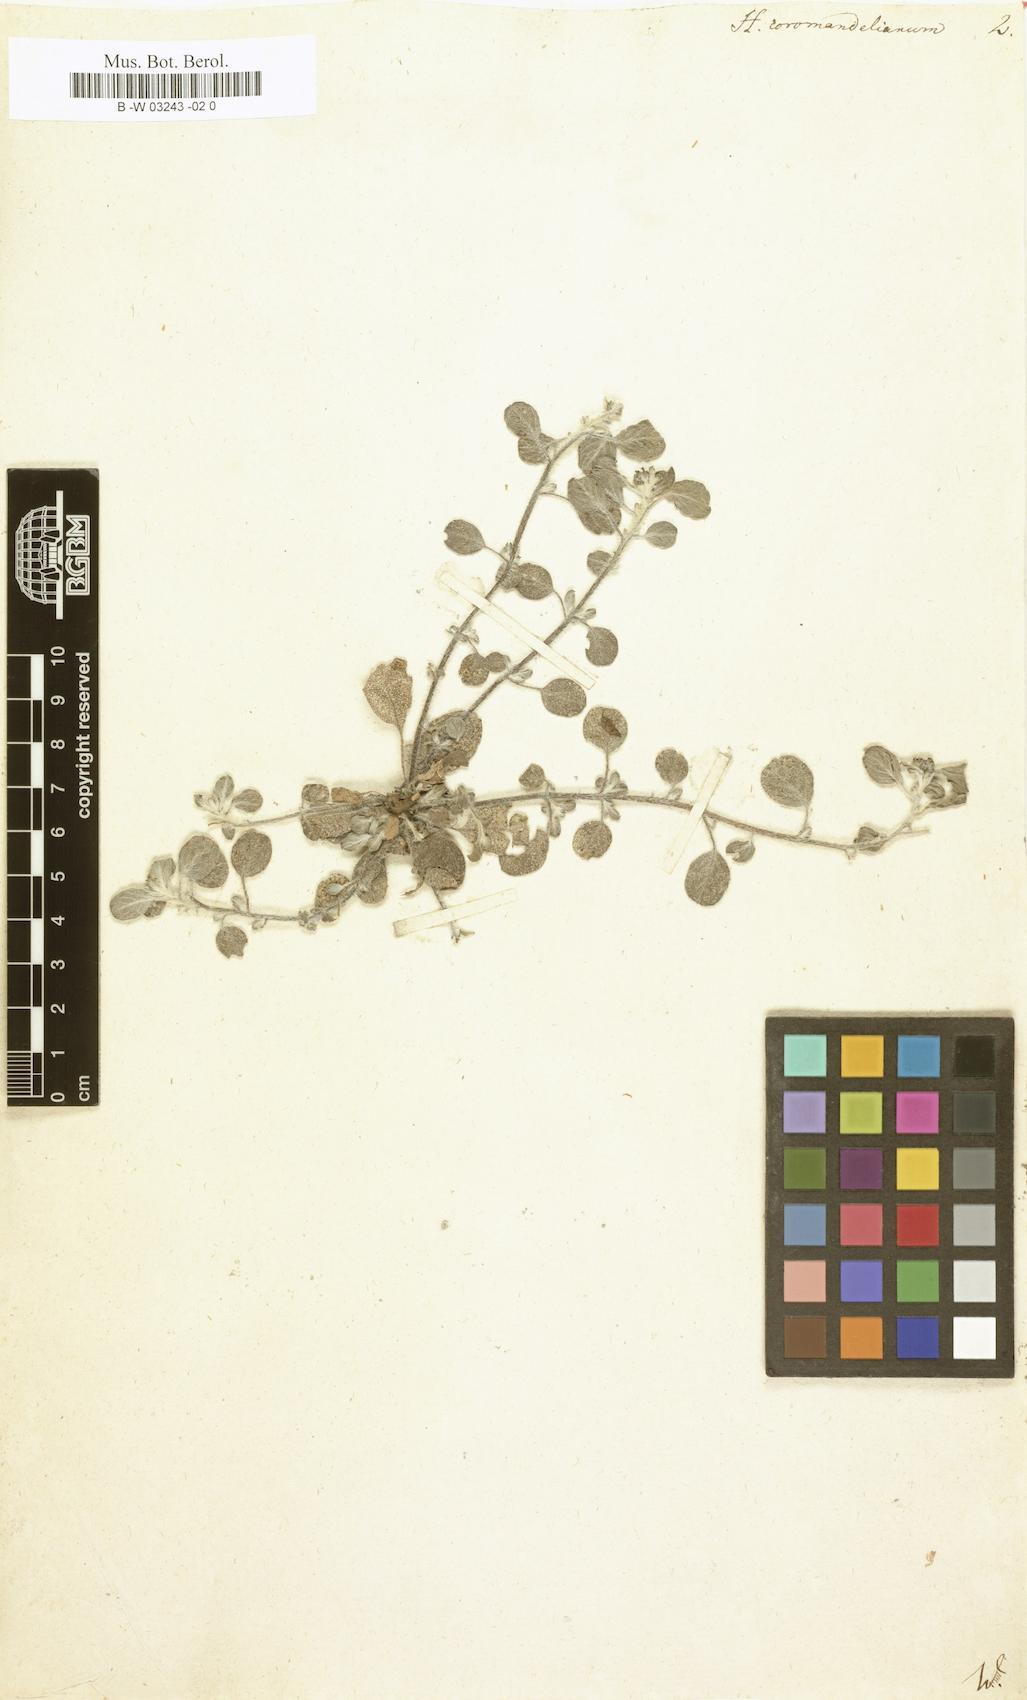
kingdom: Plantae
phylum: Tracheophyta
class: Magnoliopsida
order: Boraginales
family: Heliotropiaceae
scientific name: Heliotropiaceae
